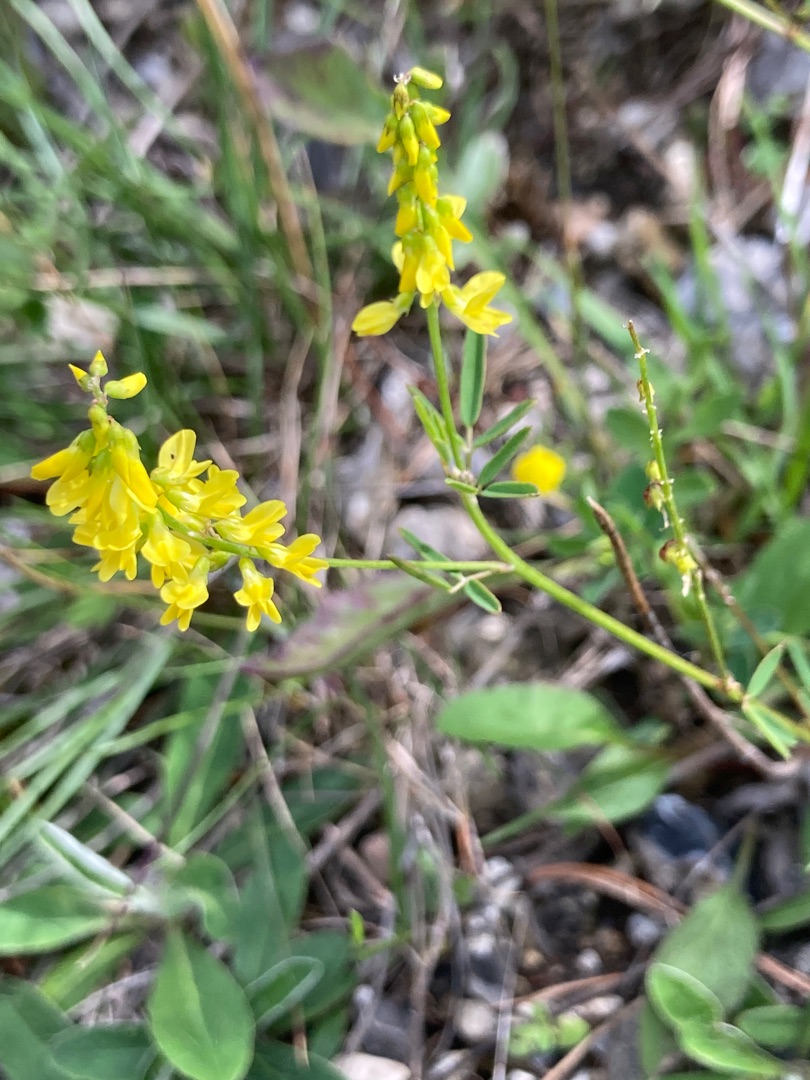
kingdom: Plantae
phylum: Tracheophyta
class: Magnoliopsida
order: Fabales
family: Fabaceae
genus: Melilotus
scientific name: Melilotus officinalis
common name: Mark-stenkløver
